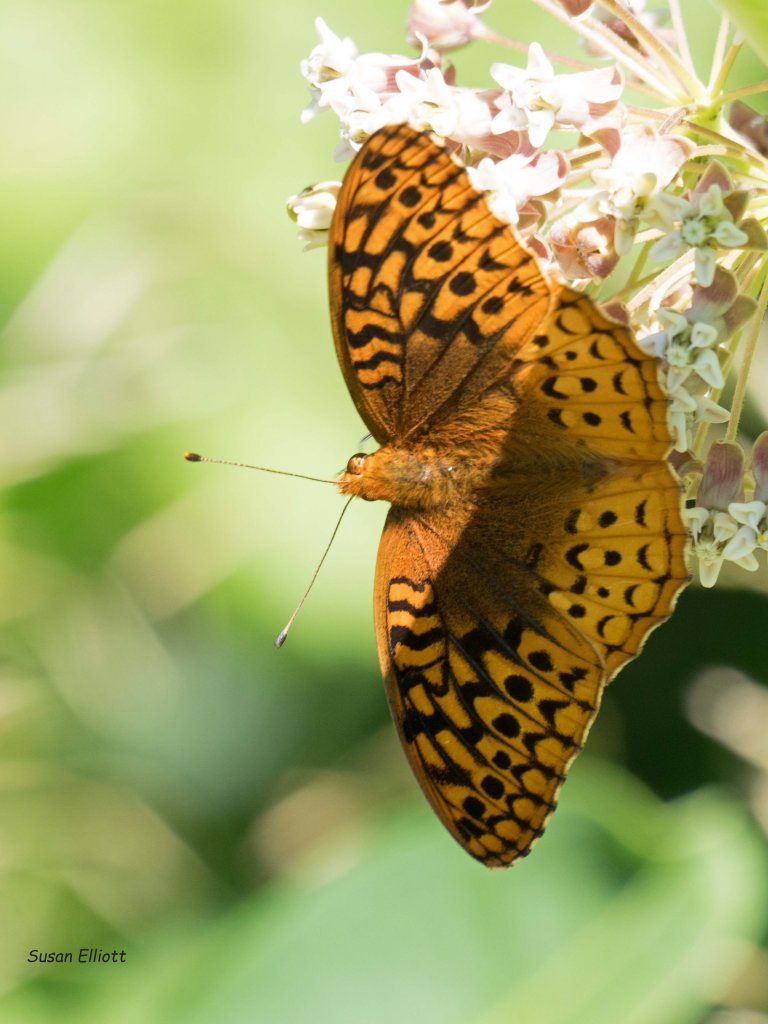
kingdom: Animalia
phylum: Arthropoda
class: Insecta
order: Lepidoptera
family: Nymphalidae
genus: Speyeria
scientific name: Speyeria cybele
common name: Great Spangled Fritillary
